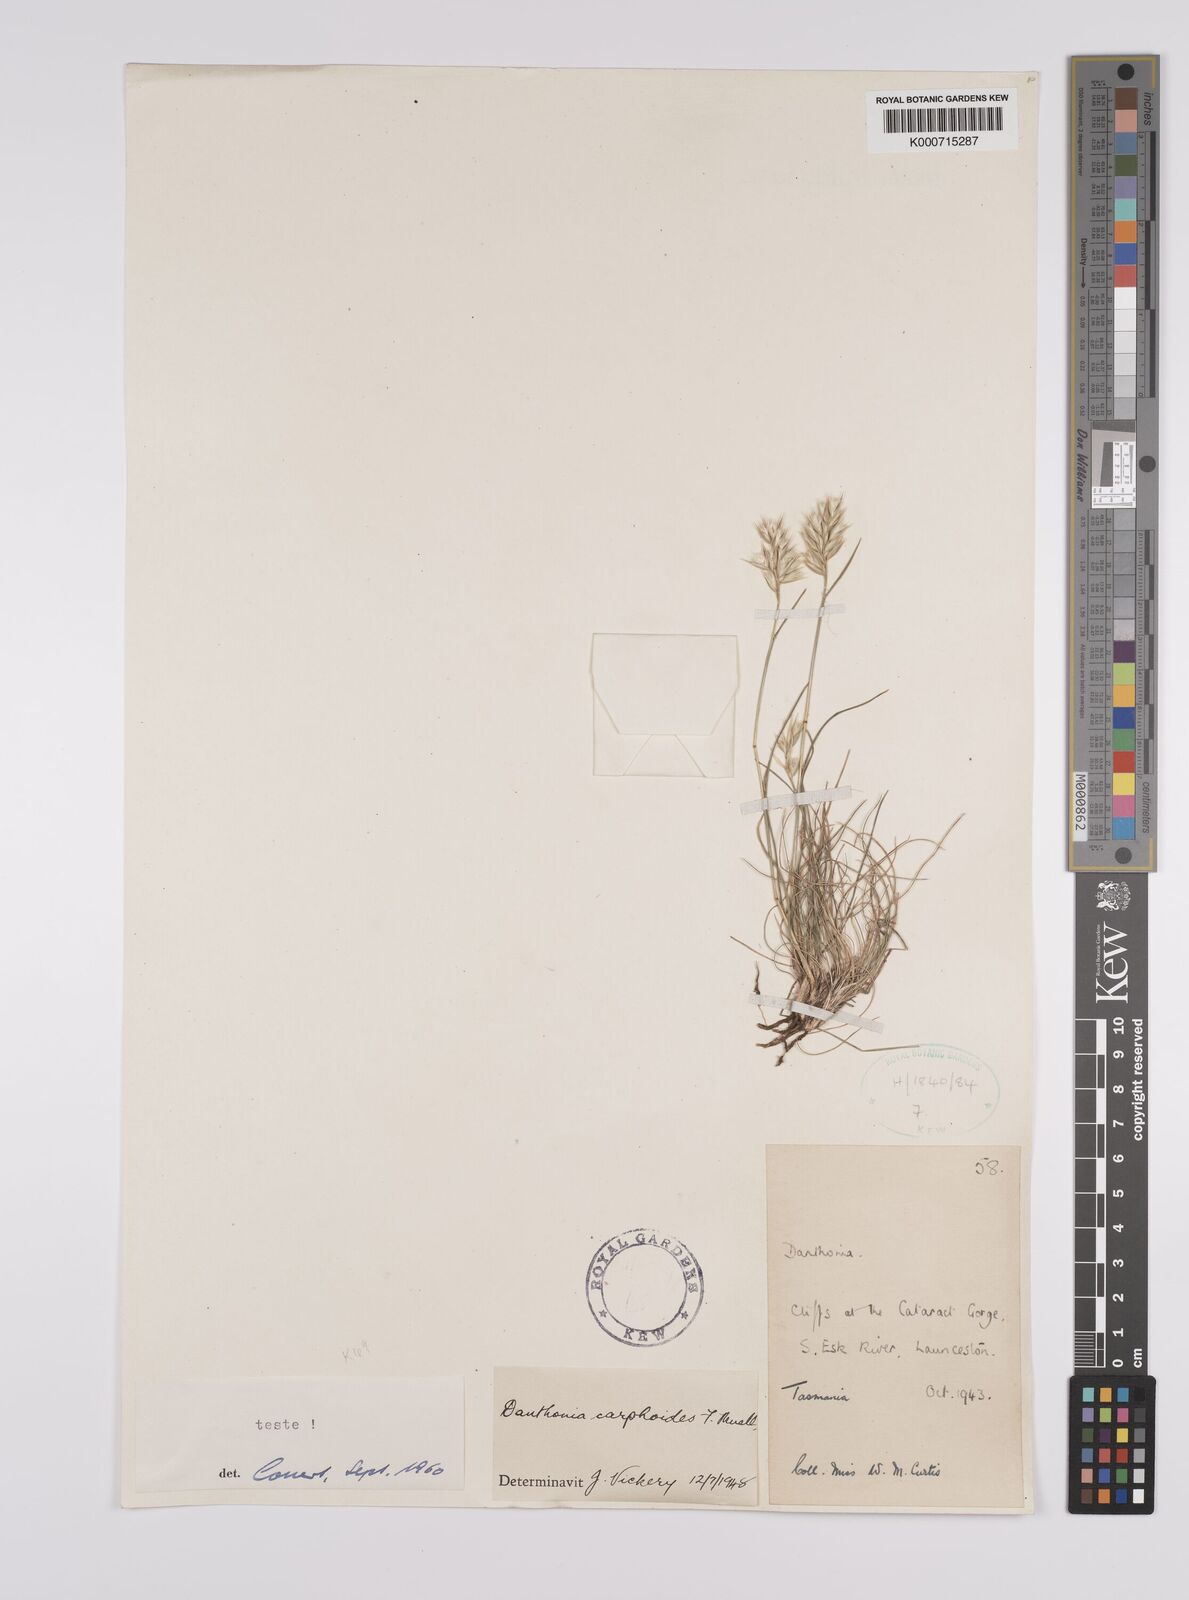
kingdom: Plantae
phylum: Tracheophyta
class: Liliopsida
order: Poales
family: Poaceae
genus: Rytidosperma
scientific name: Rytidosperma carphoides
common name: Short wallaby grass
